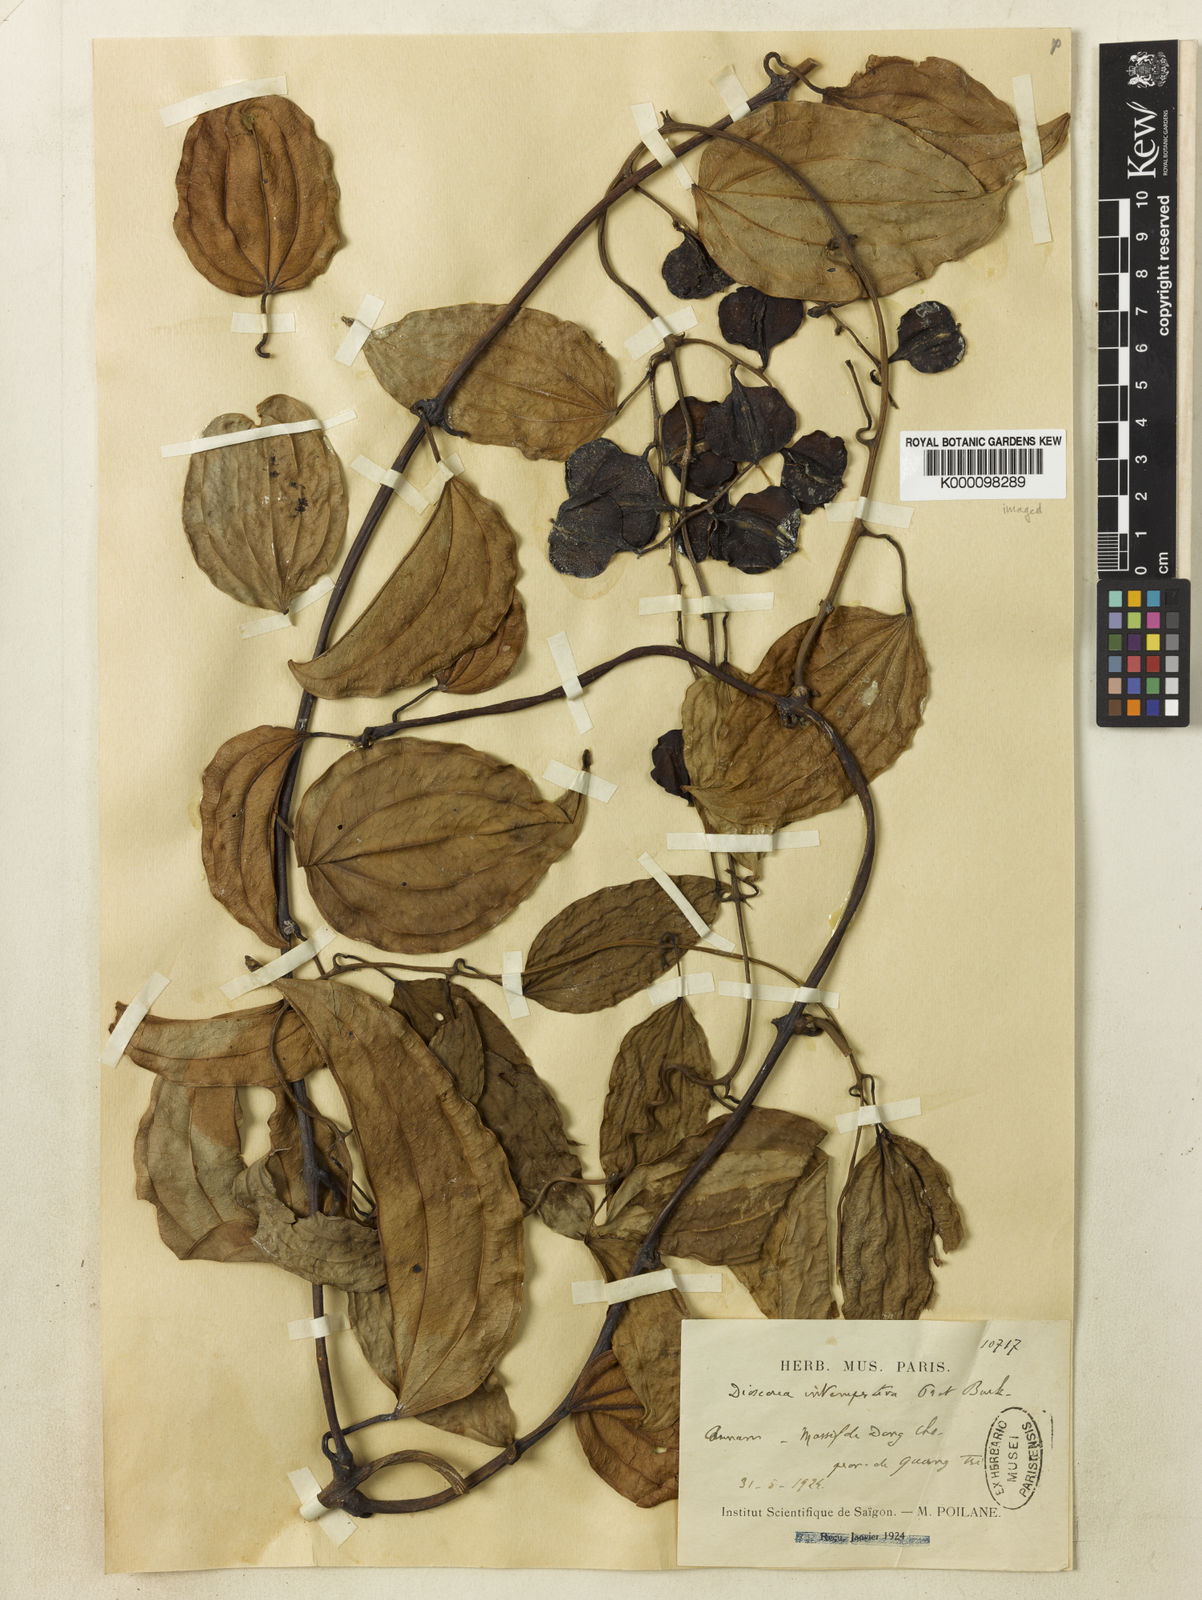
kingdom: Plantae
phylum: Tracheophyta
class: Liliopsida
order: Dioscoreales
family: Dioscoreaceae
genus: Dioscorea
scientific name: Dioscorea cirrhosa
